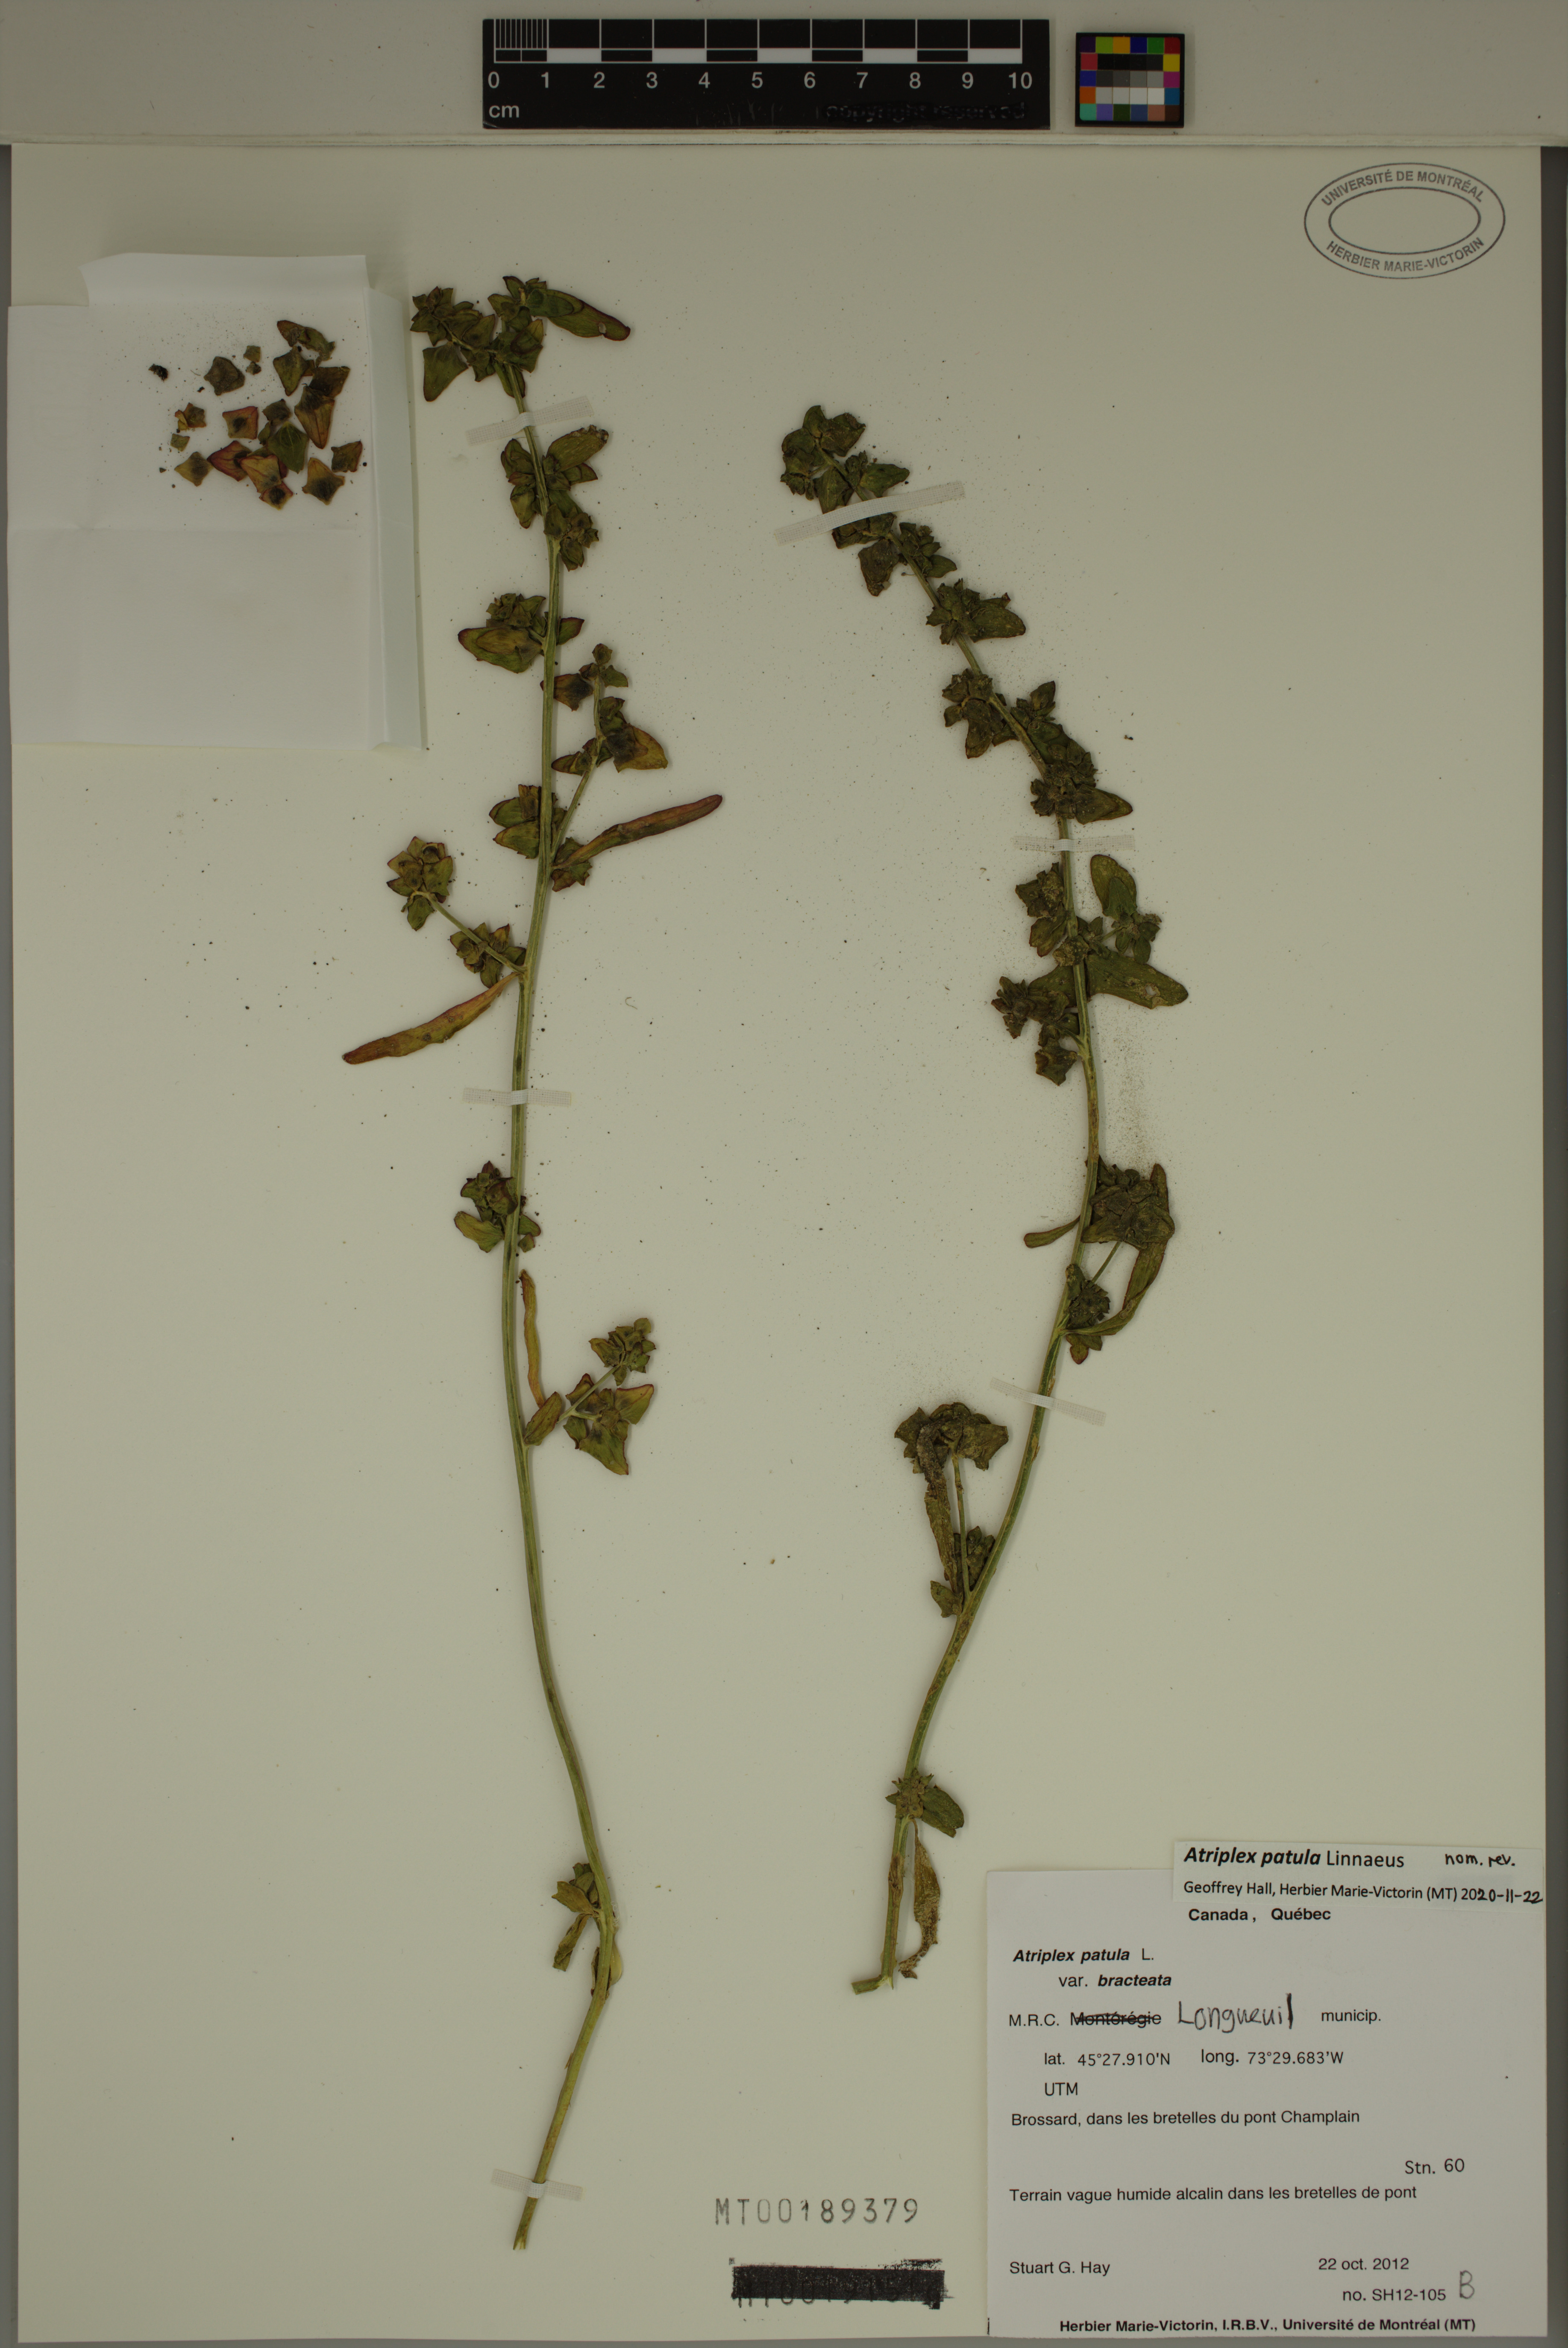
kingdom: Plantae
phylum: Tracheophyta
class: Magnoliopsida
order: Caryophyllales
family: Amaranthaceae
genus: Atriplex
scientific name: Atriplex patula
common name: Common orache
